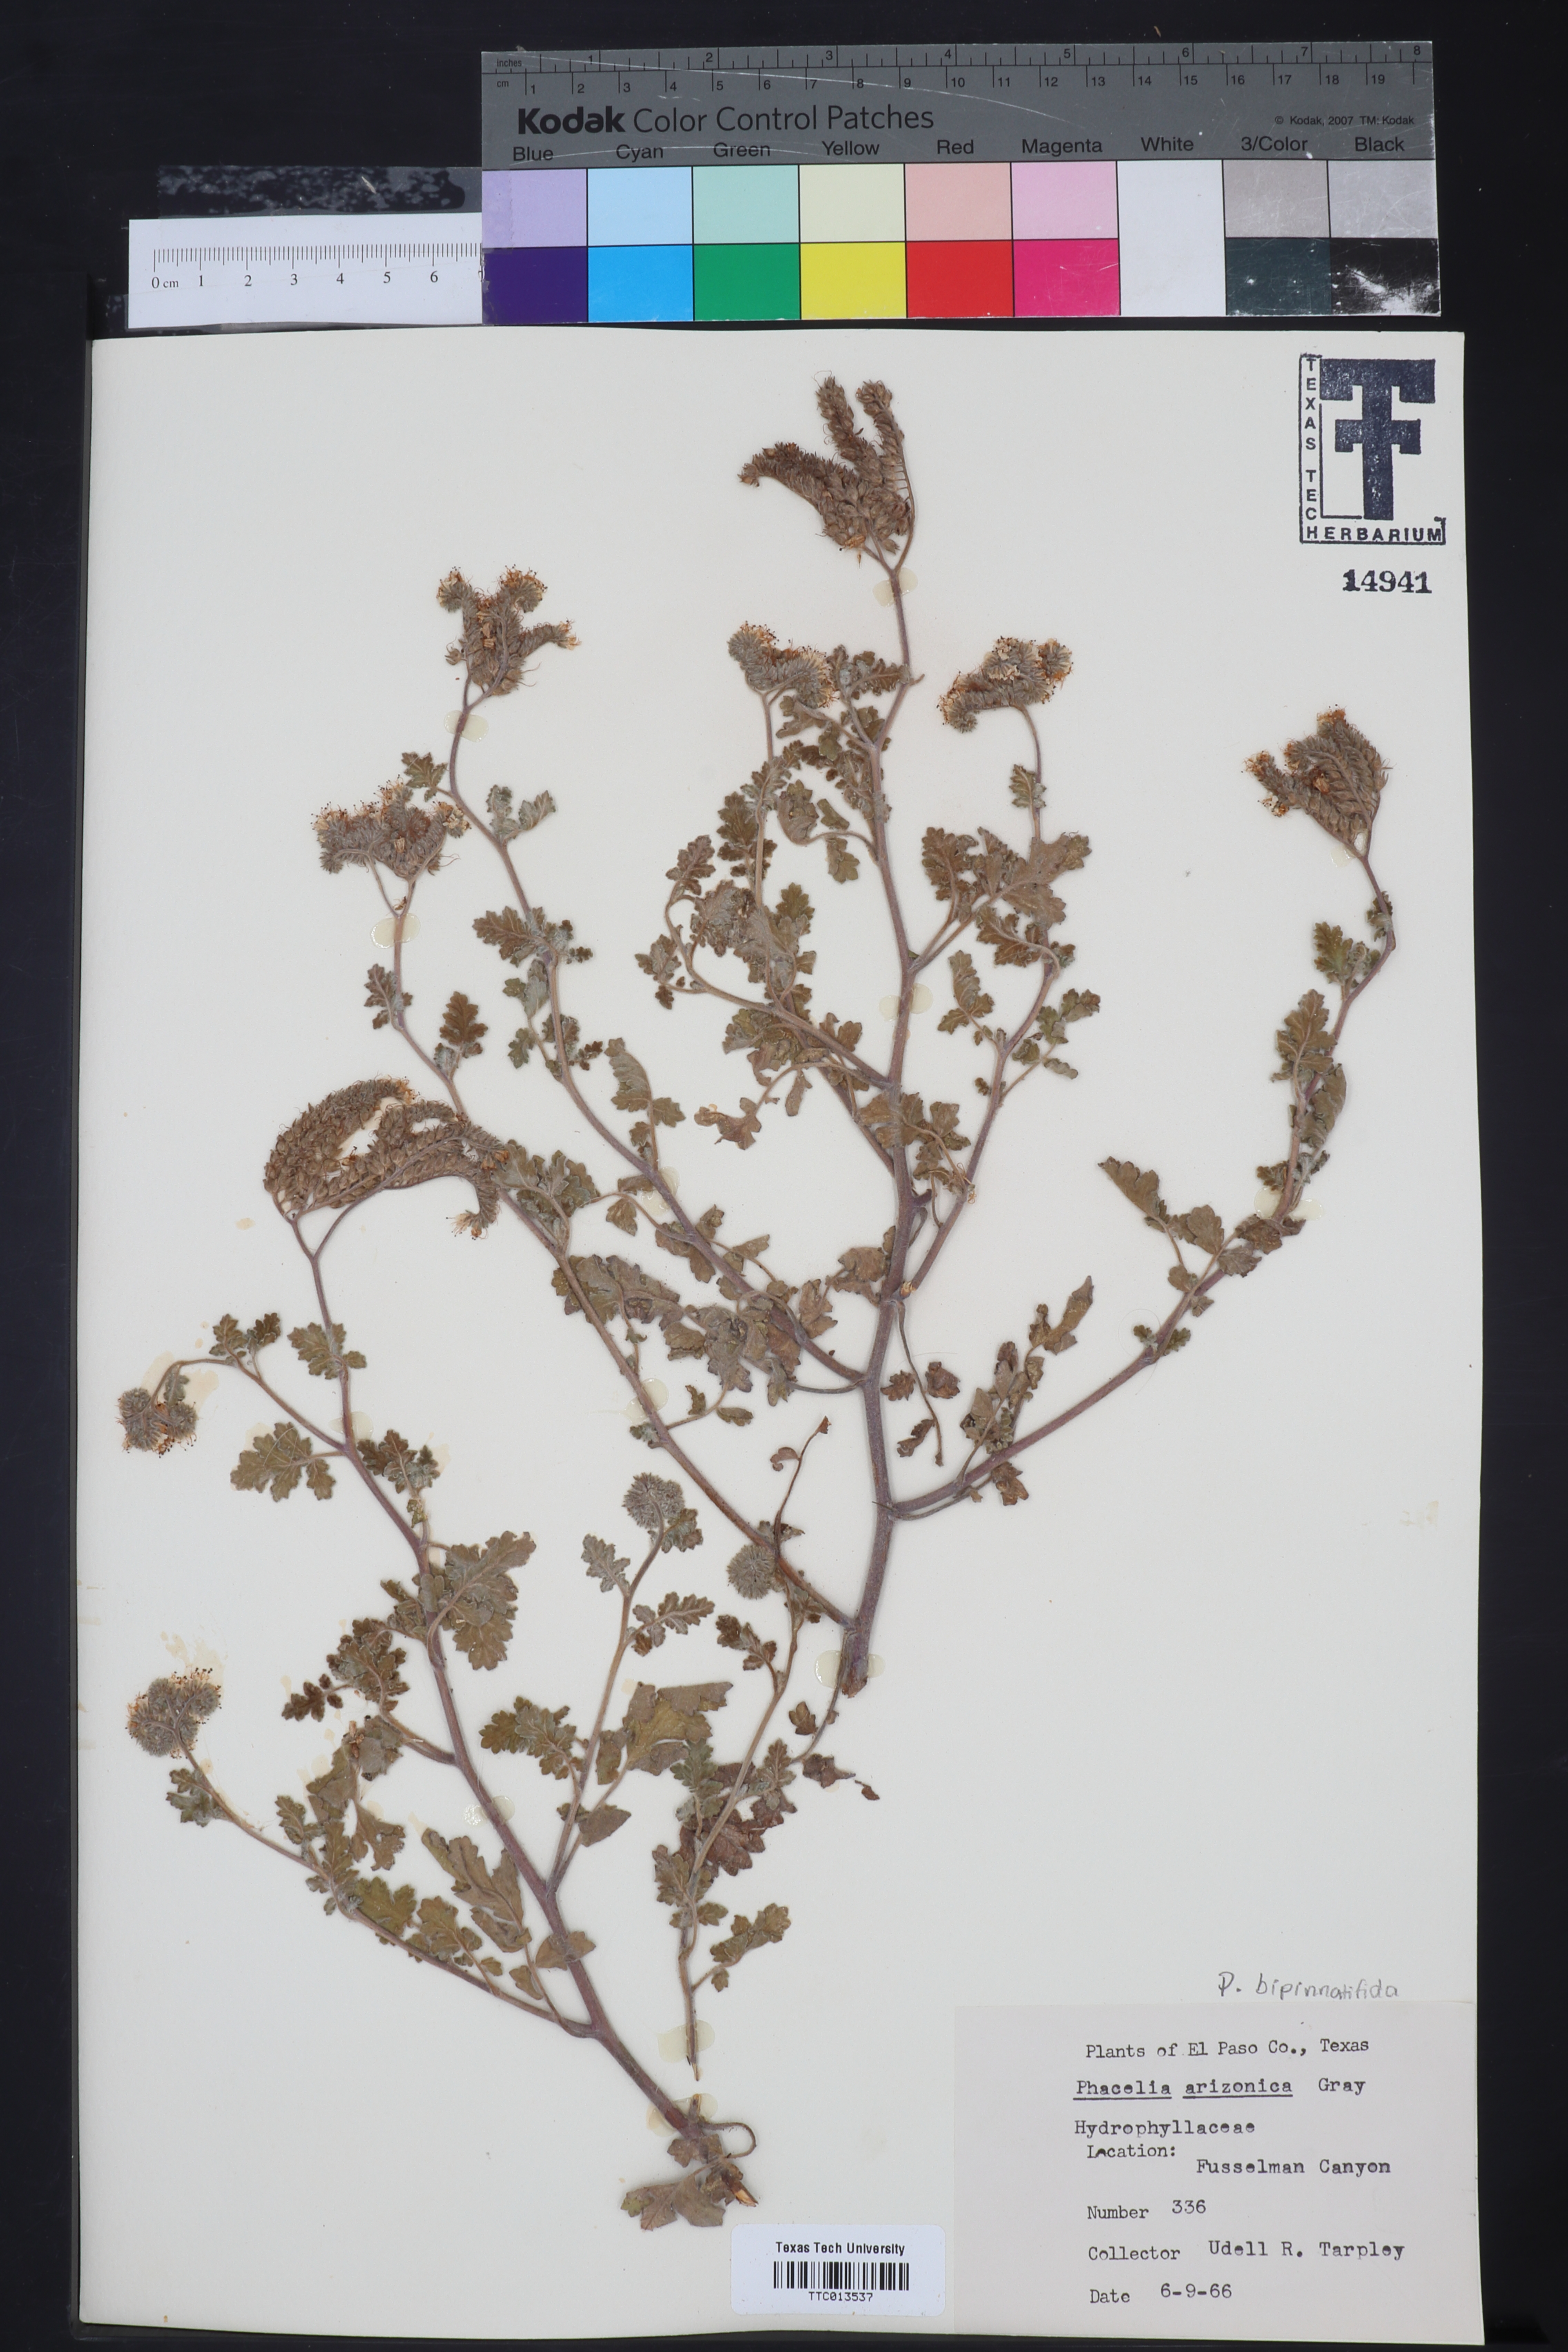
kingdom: Plantae
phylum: Tracheophyta
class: Magnoliopsida
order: Boraginales
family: Hydrophyllaceae
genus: Phacelia
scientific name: Phacelia arizonica
